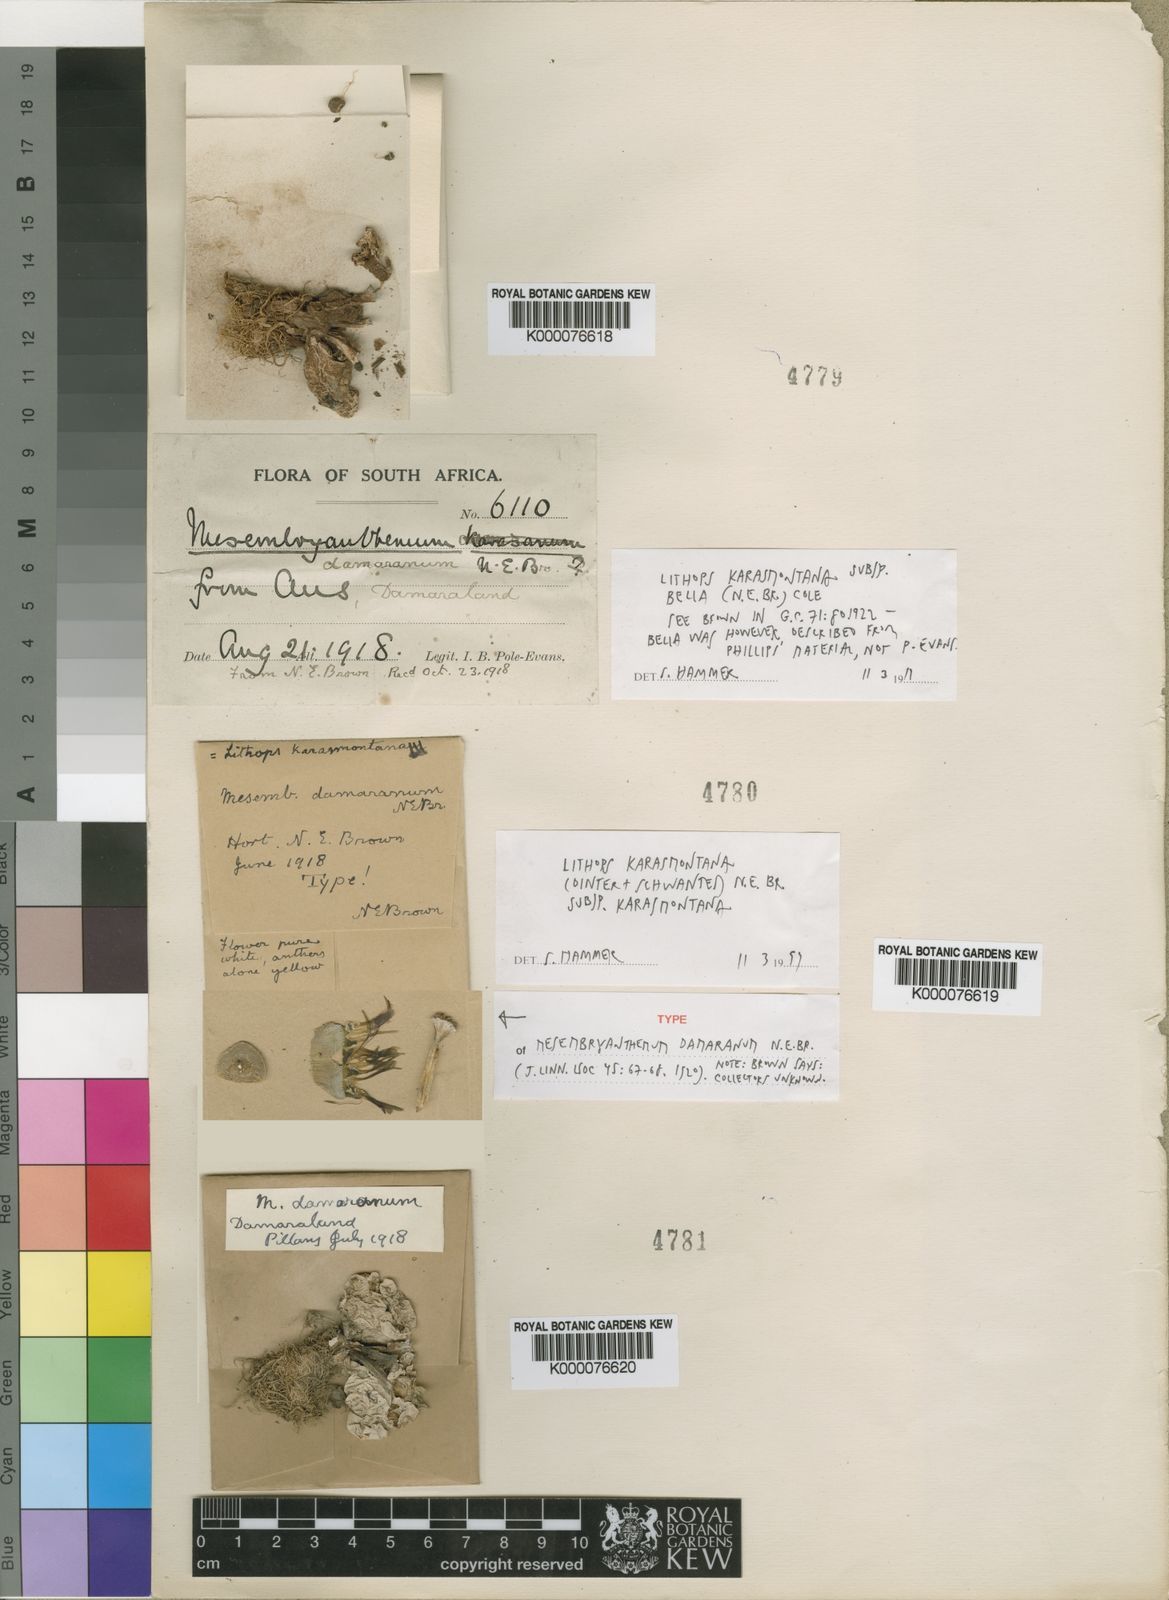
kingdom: Plantae
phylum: Tracheophyta
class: Magnoliopsida
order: Caryophyllales
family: Aizoaceae
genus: Lithops
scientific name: Lithops karasmontana
